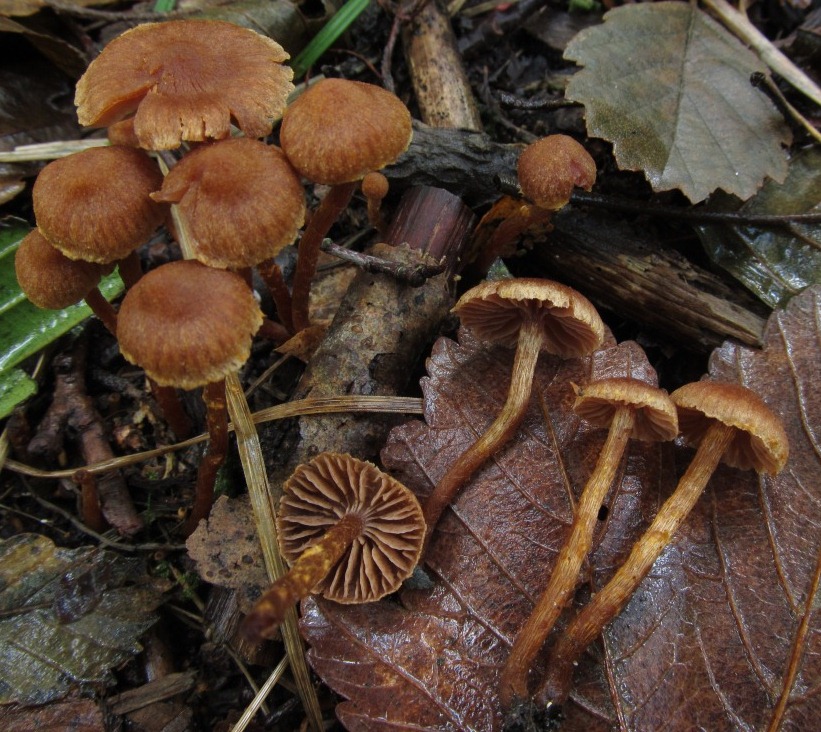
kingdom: Fungi
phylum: Basidiomycota
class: Agaricomycetes
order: Agaricales
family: Cortinariaceae
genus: Cortinarius
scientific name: Cortinarius helvelloides
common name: fjernbladet slørhat
